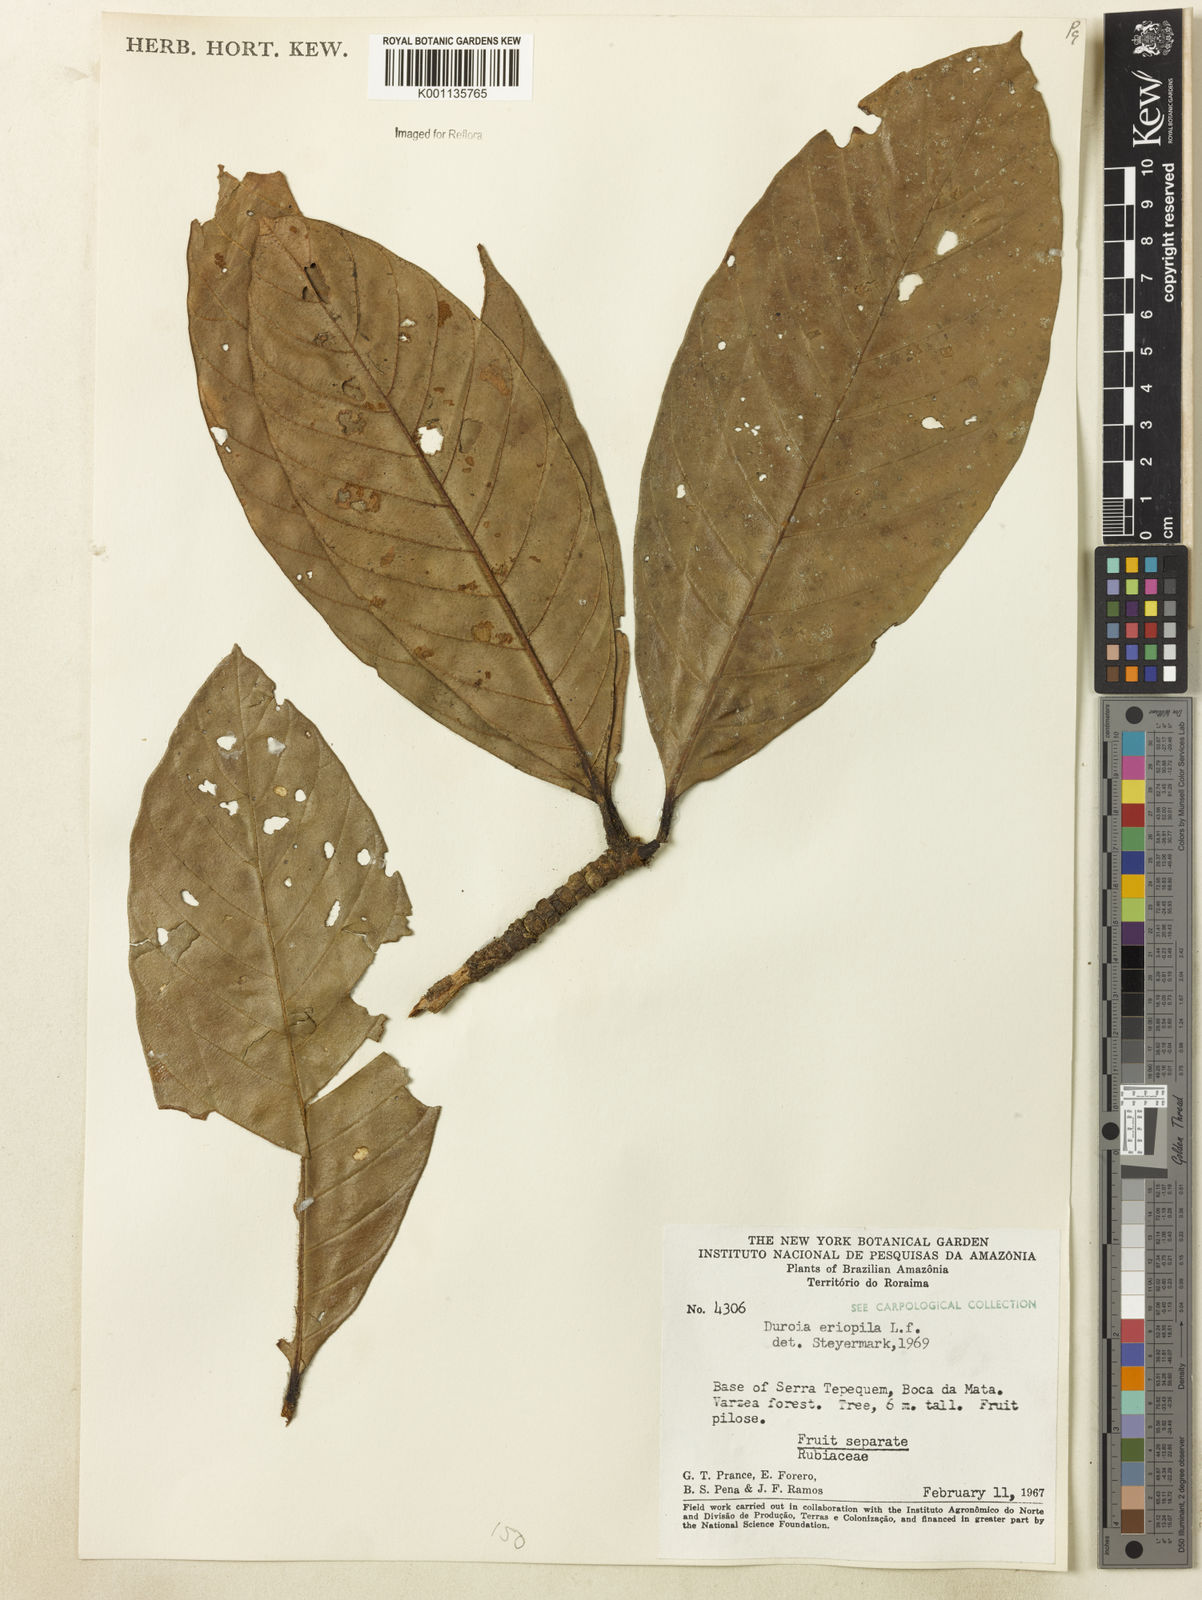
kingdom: Plantae
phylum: Tracheophyta
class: Magnoliopsida
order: Gentianales
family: Rubiaceae
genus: Duroia
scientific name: Duroia eriopila
